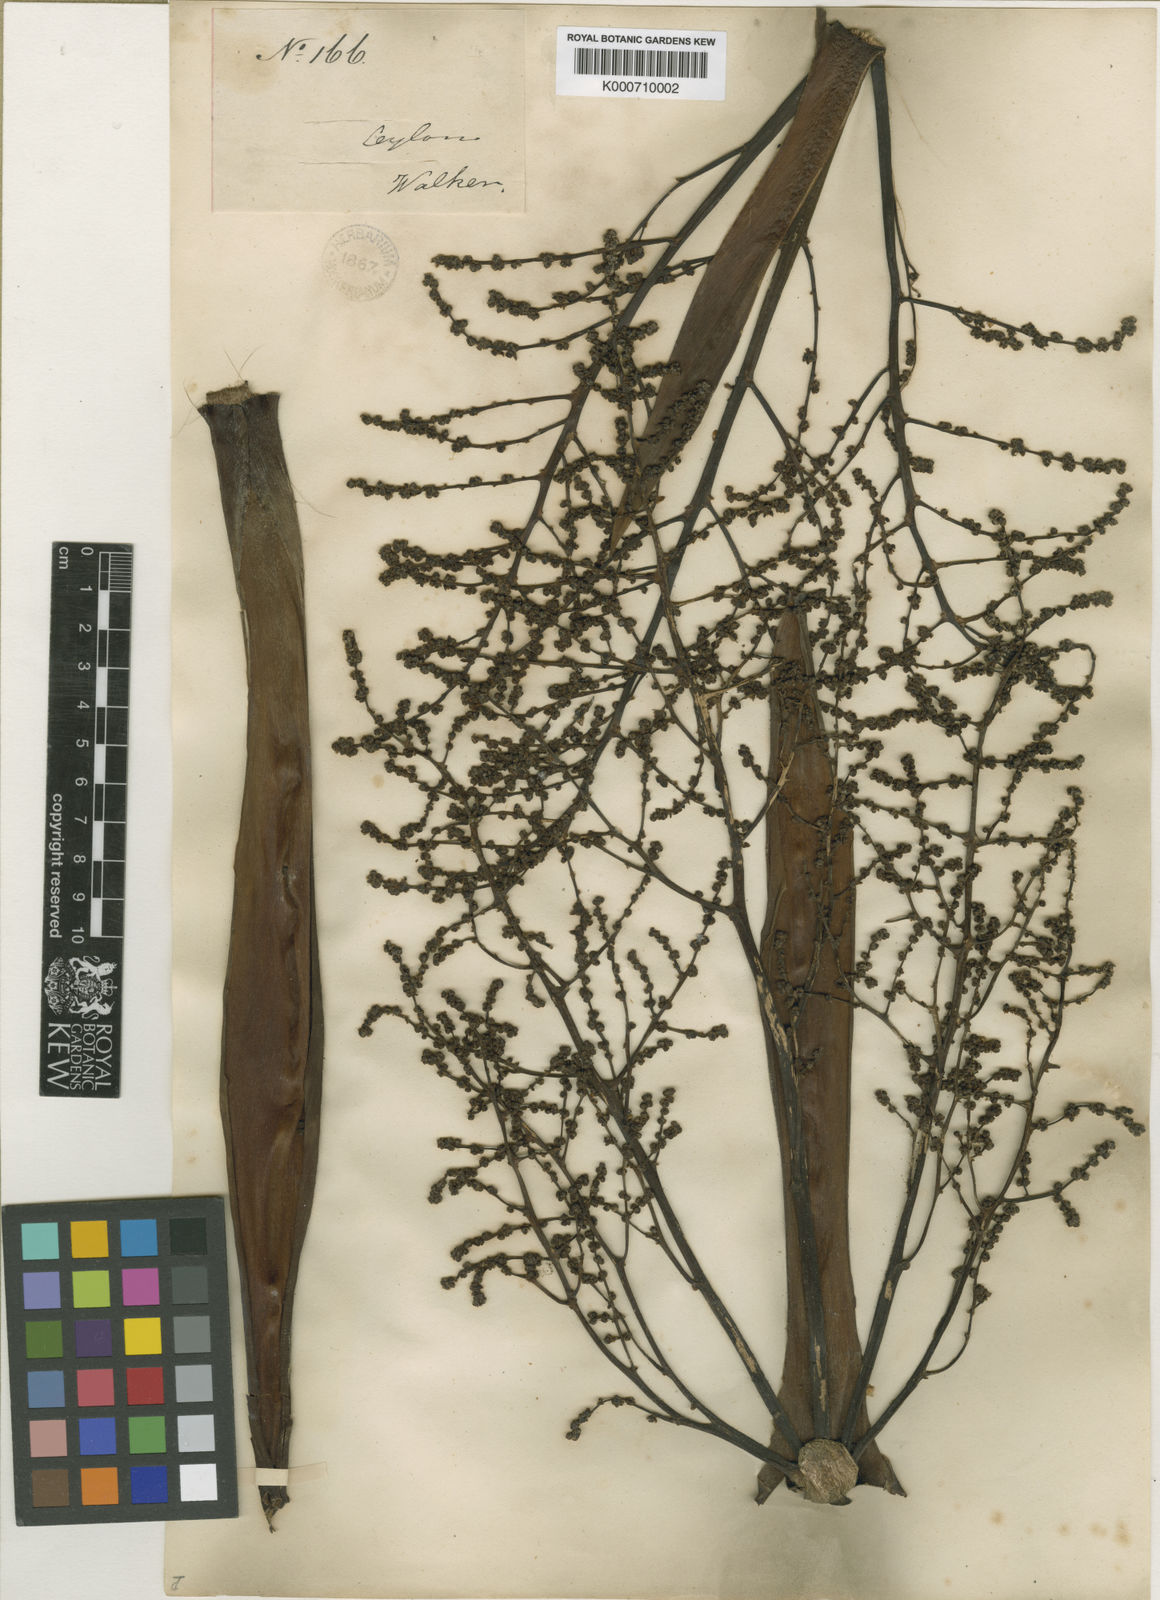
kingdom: Plantae
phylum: Tracheophyta
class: Liliopsida
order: Commelinales
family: Hanguanaceae
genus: Hanguana
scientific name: Hanguana malayana
